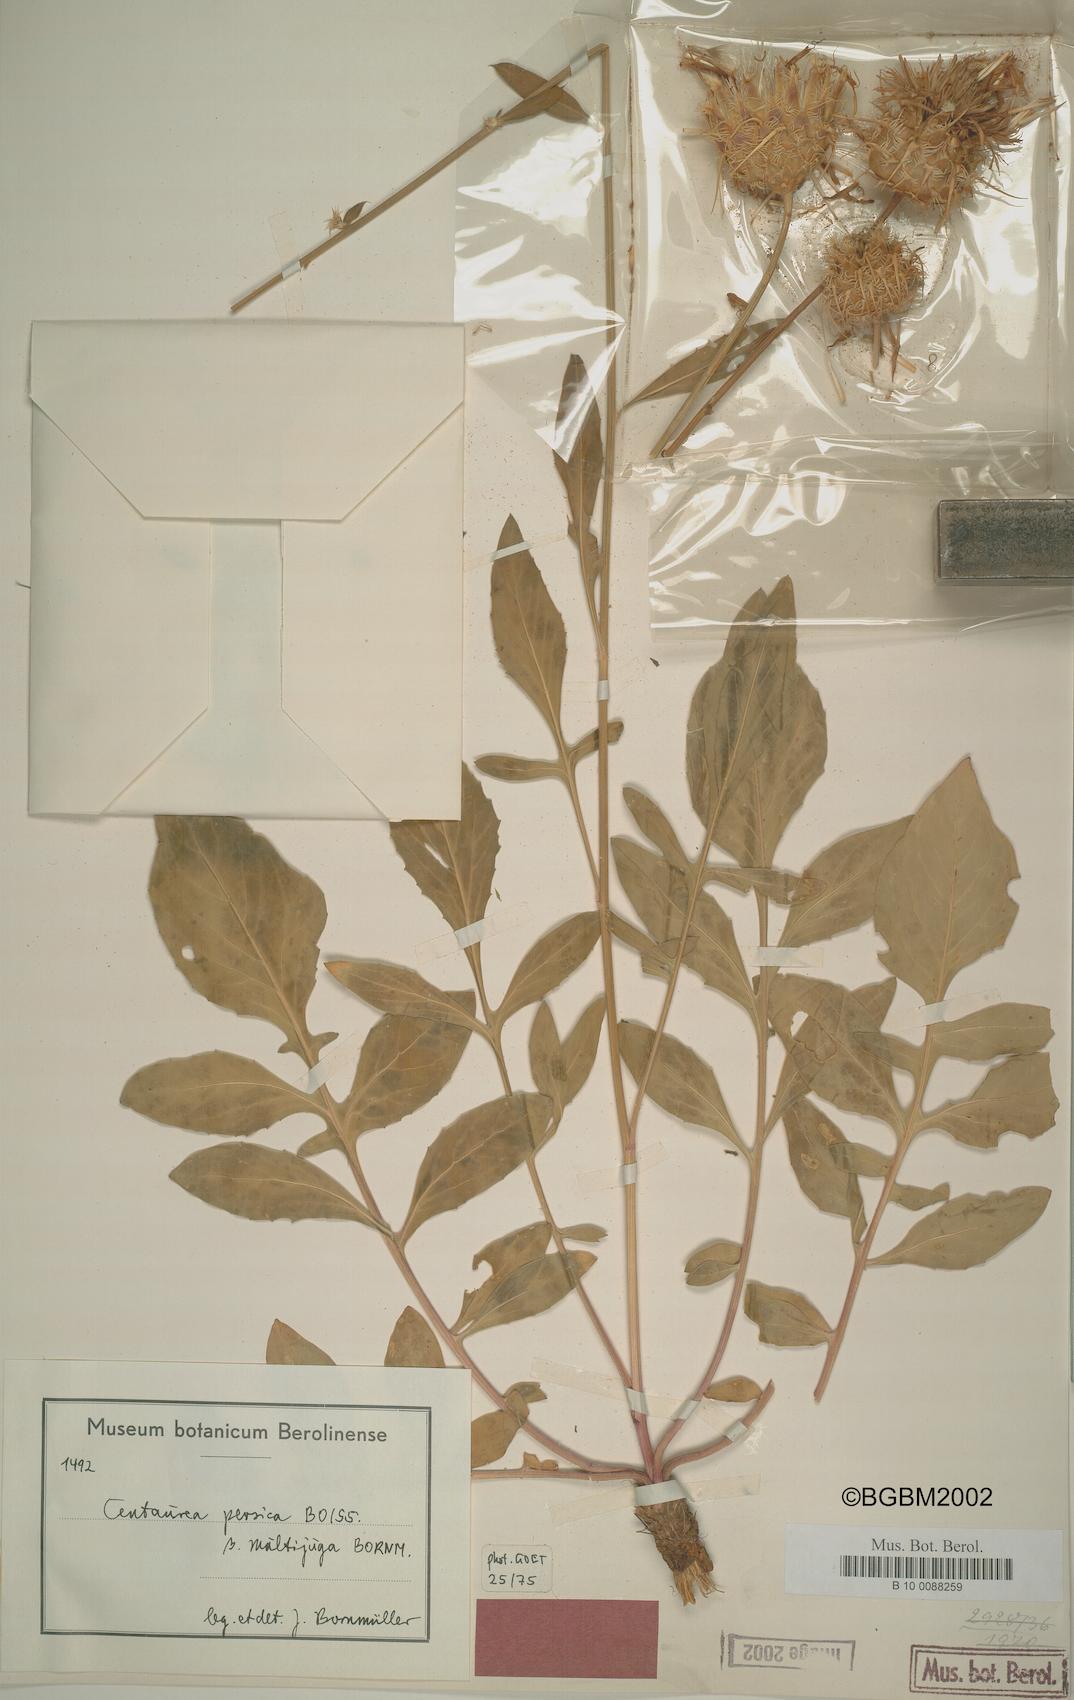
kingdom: Plantae
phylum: Tracheophyta
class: Magnoliopsida
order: Asterales
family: Asteraceae
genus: Centaurea
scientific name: Centaurea persica
